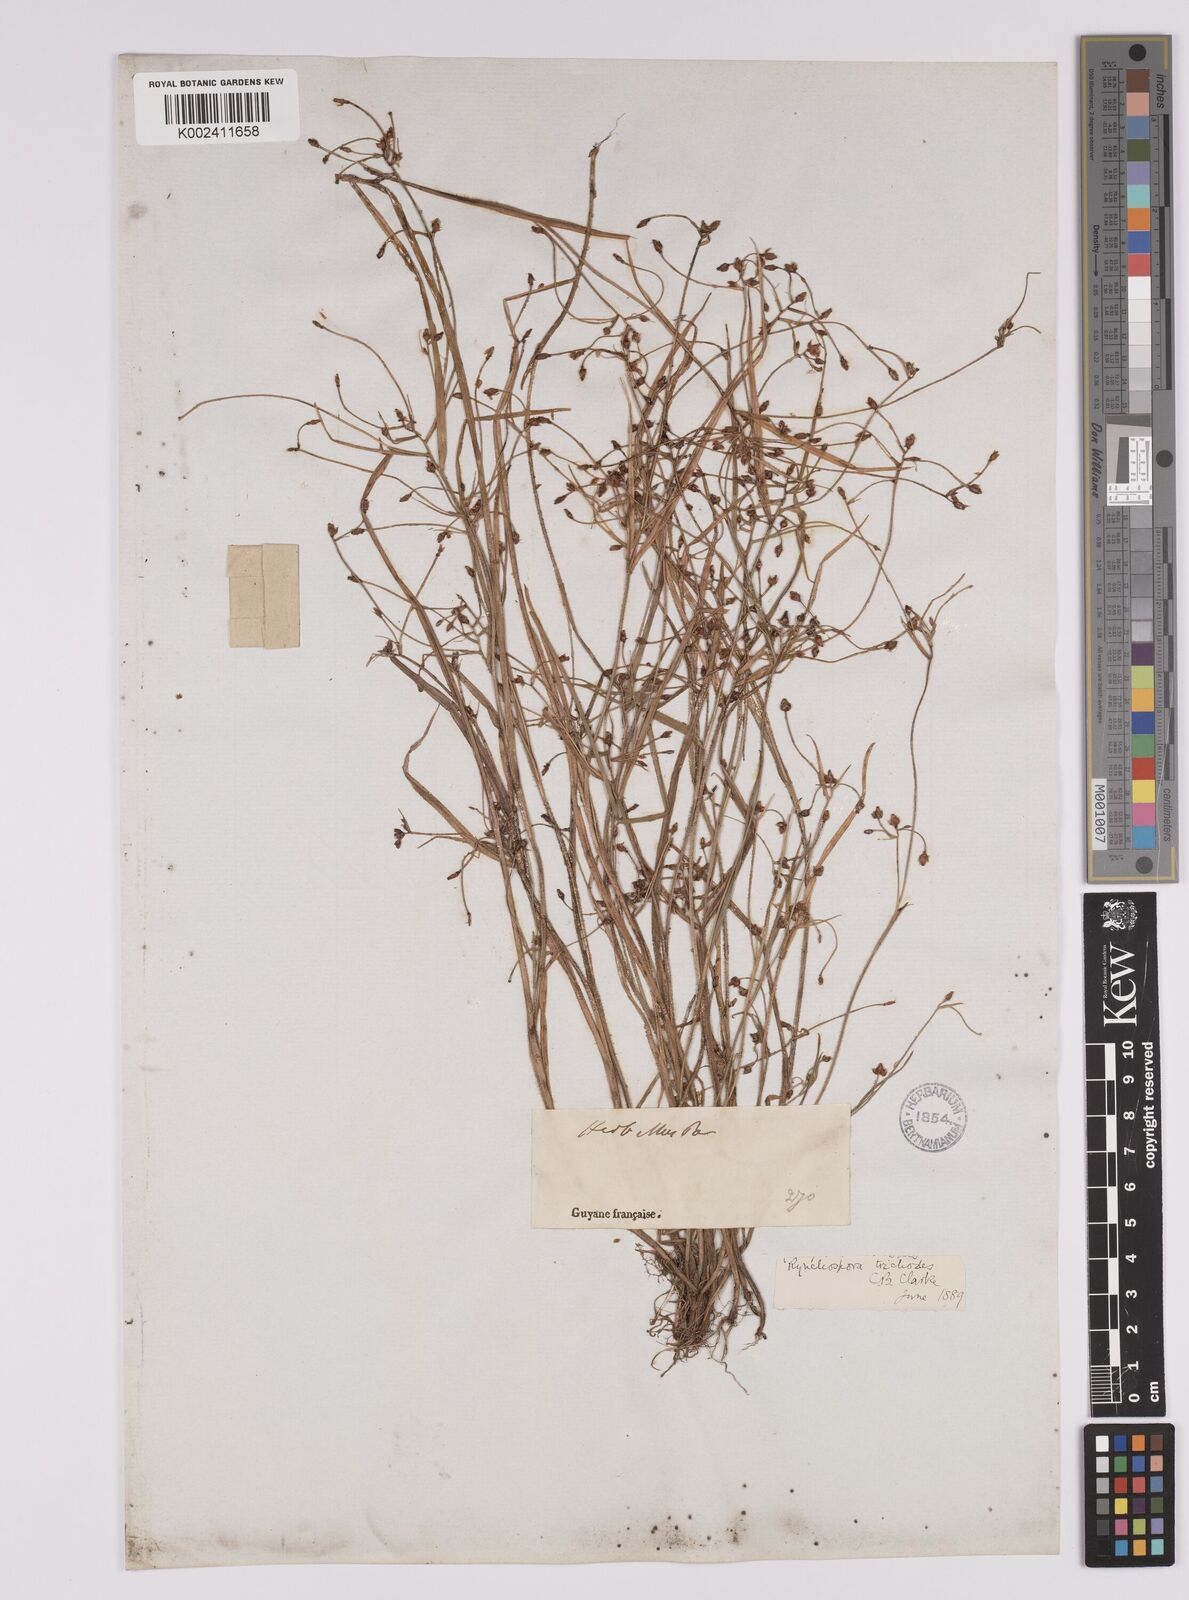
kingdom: Plantae
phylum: Tracheophyta
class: Liliopsida
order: Poales
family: Cyperaceae
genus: Rhynchospora
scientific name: Rhynchospora divaricata
